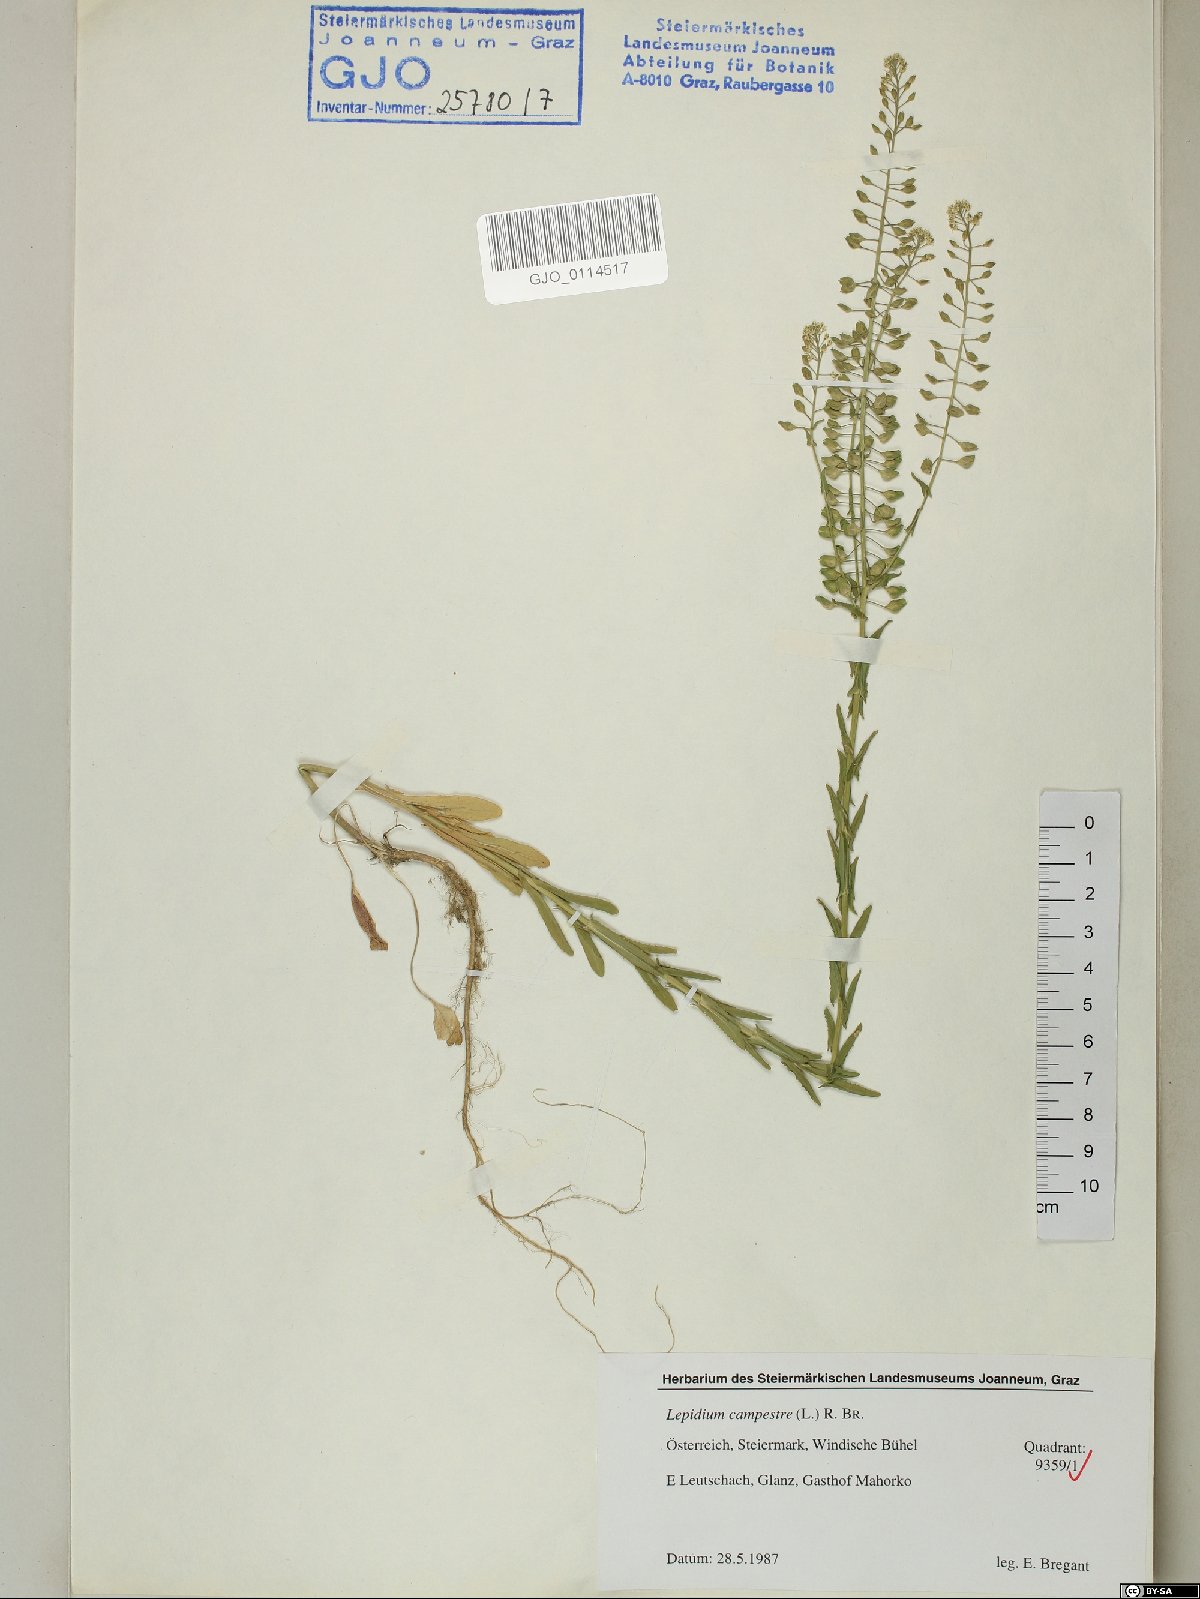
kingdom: Plantae
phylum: Tracheophyta
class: Magnoliopsida
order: Brassicales
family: Brassicaceae
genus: Lepidium
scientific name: Lepidium campestre
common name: Field pepperwort
